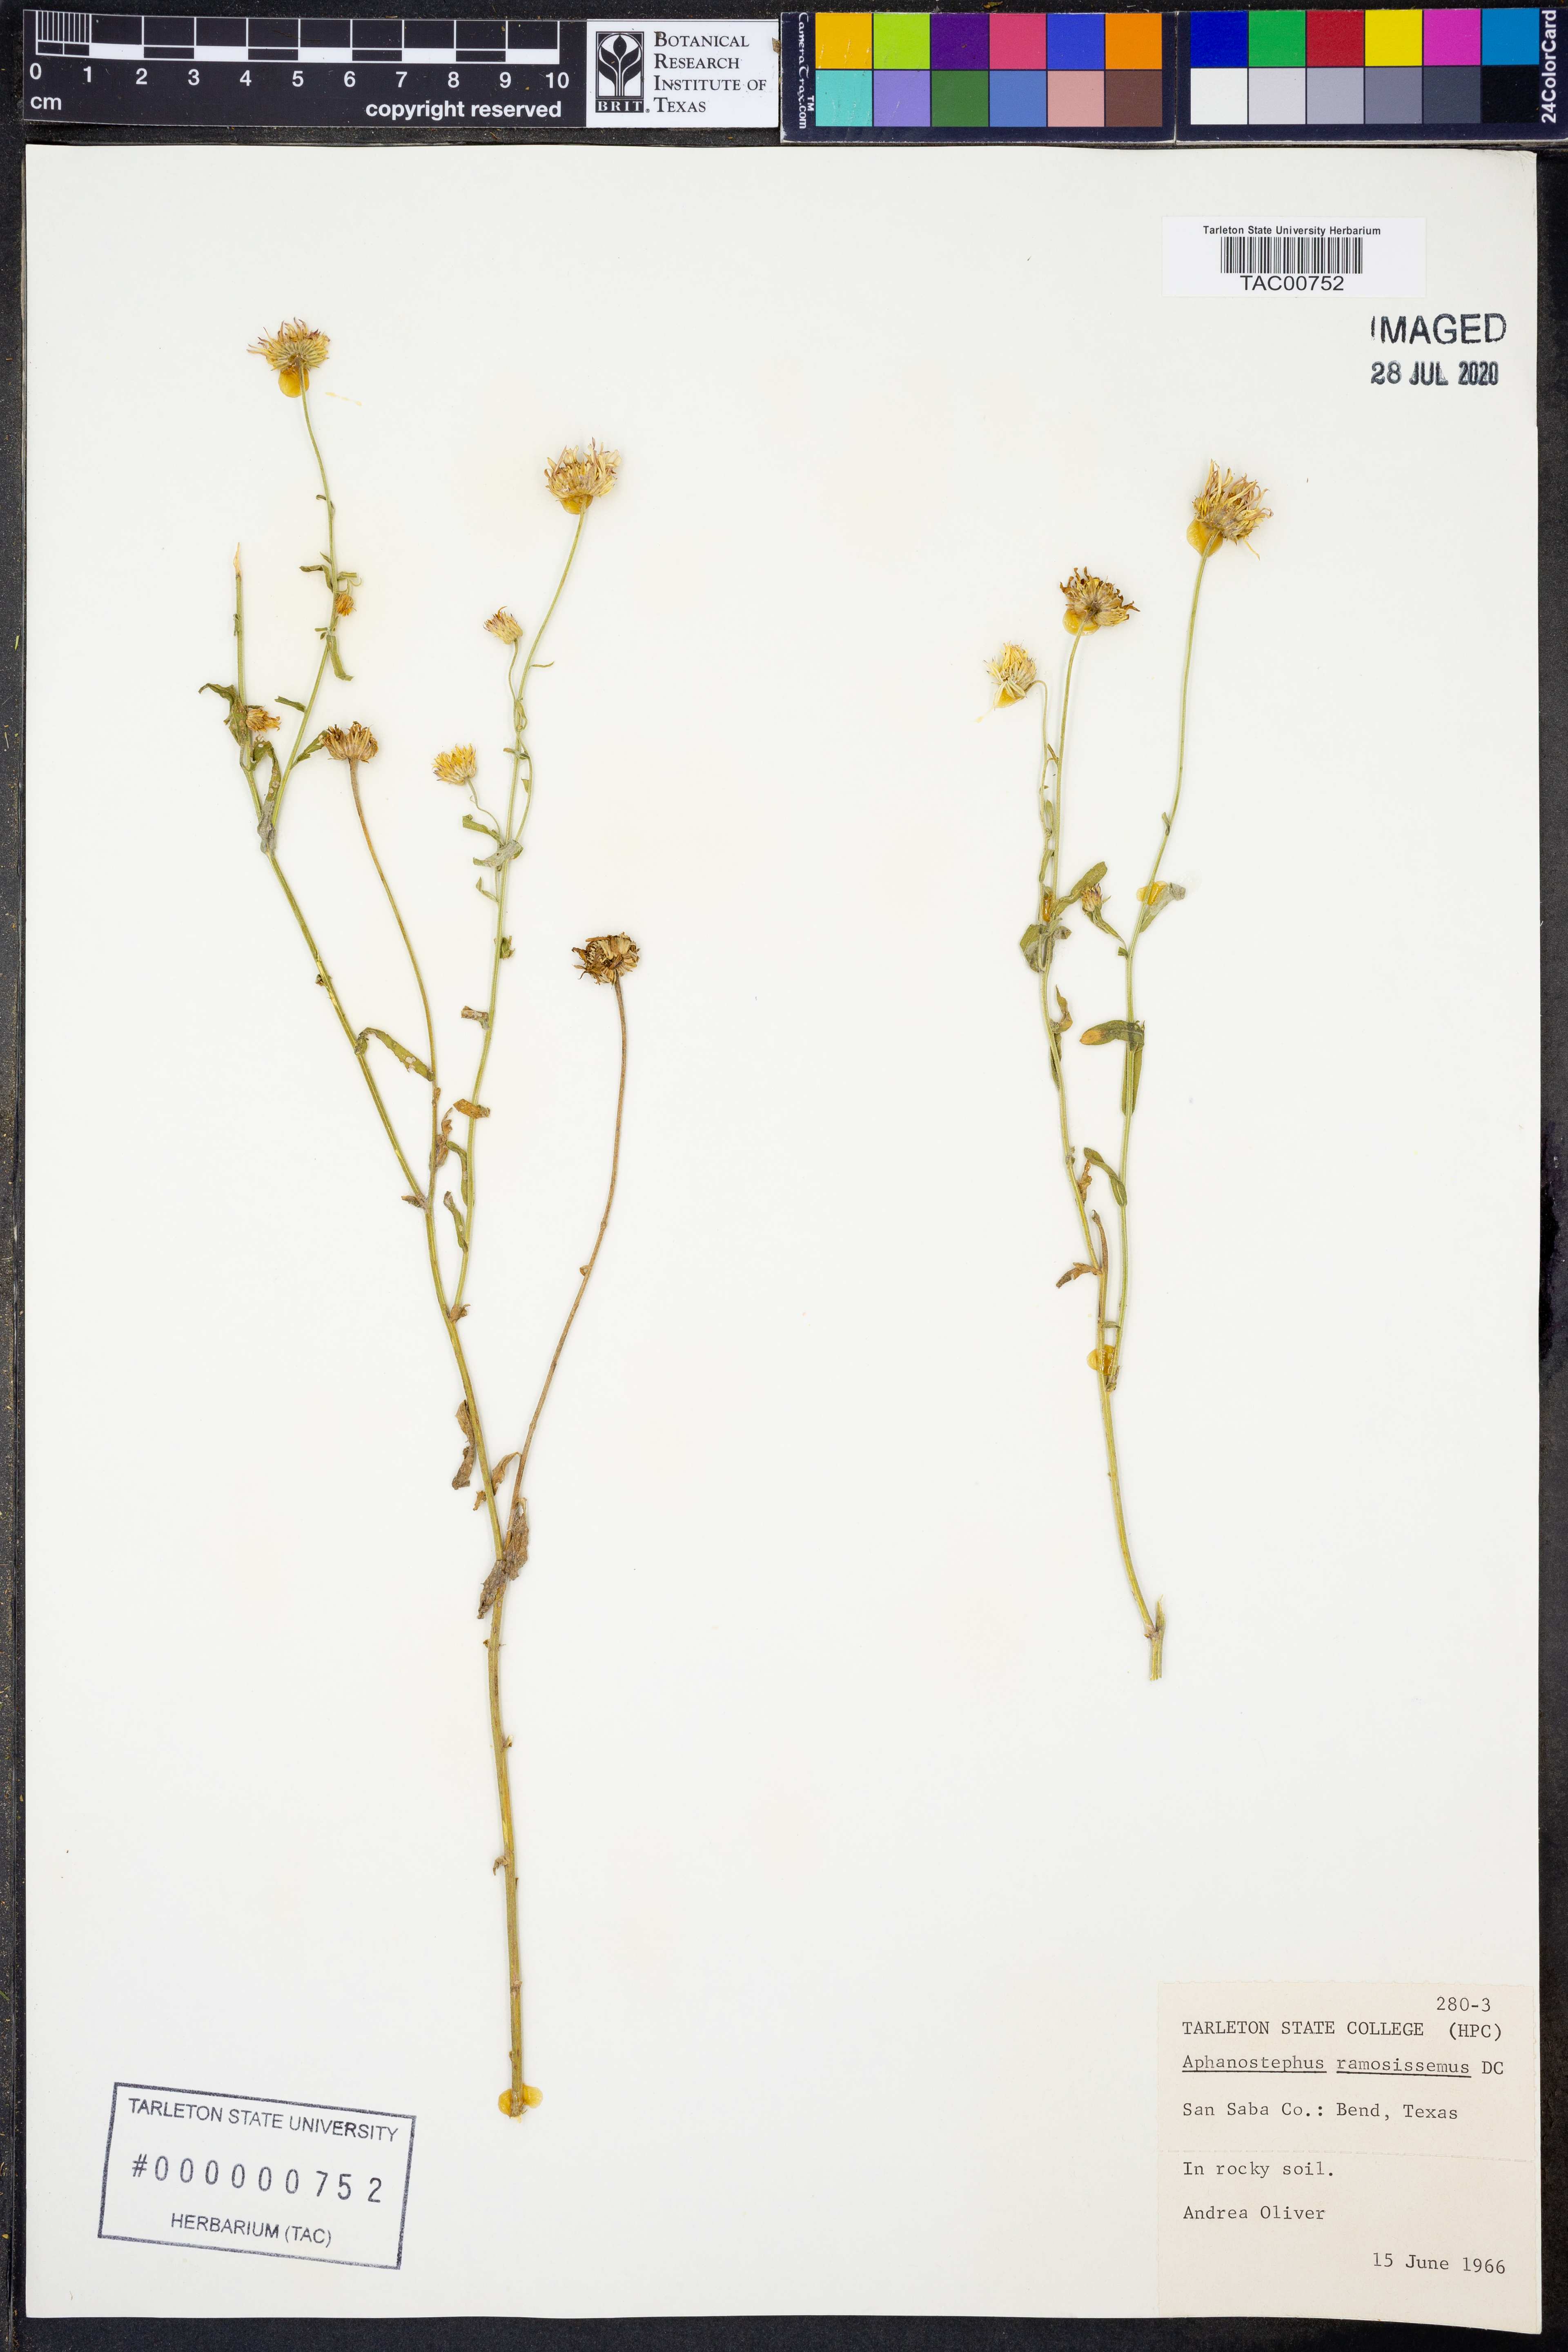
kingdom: Plantae
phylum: Tracheophyta
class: Magnoliopsida
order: Asterales
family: Asteraceae
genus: Aphanostephus
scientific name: Aphanostephus ramosissimus
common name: Plains lazy daisy
